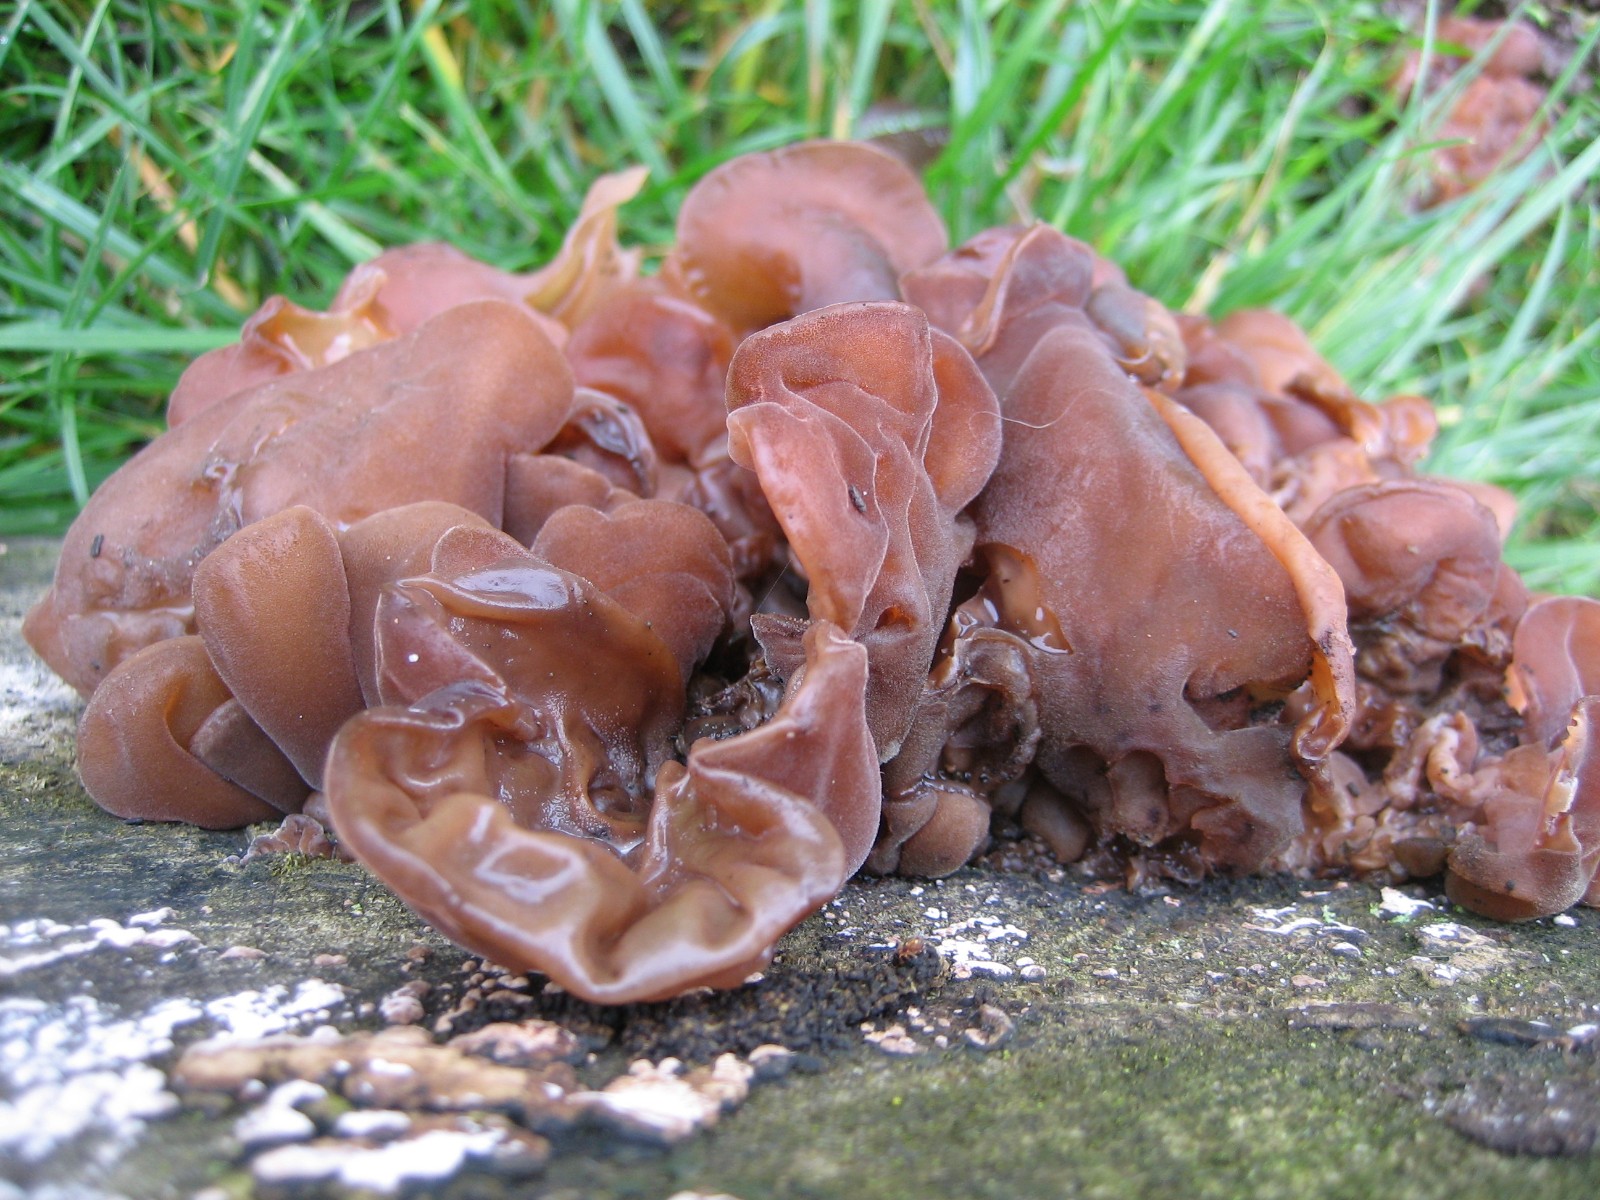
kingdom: Fungi
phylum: Basidiomycota
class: Agaricomycetes
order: Auriculariales
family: Auriculariaceae
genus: Auricularia
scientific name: Auricularia auricula-judae
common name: almindelig judasøre
